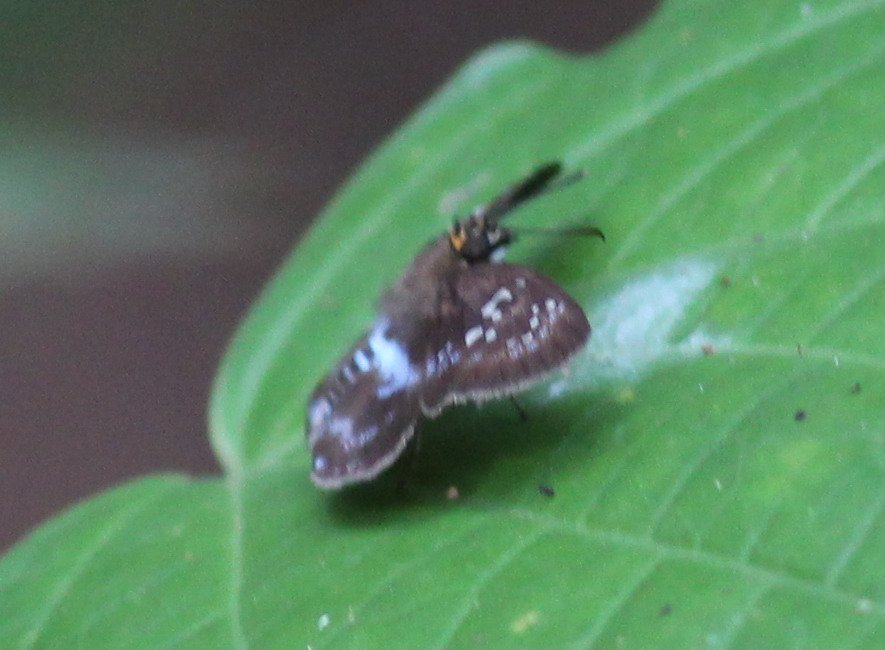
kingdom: Animalia
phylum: Arthropoda
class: Insecta
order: Lepidoptera
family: Hesperiidae
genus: Quadrus
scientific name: Quadrus contubernalis
